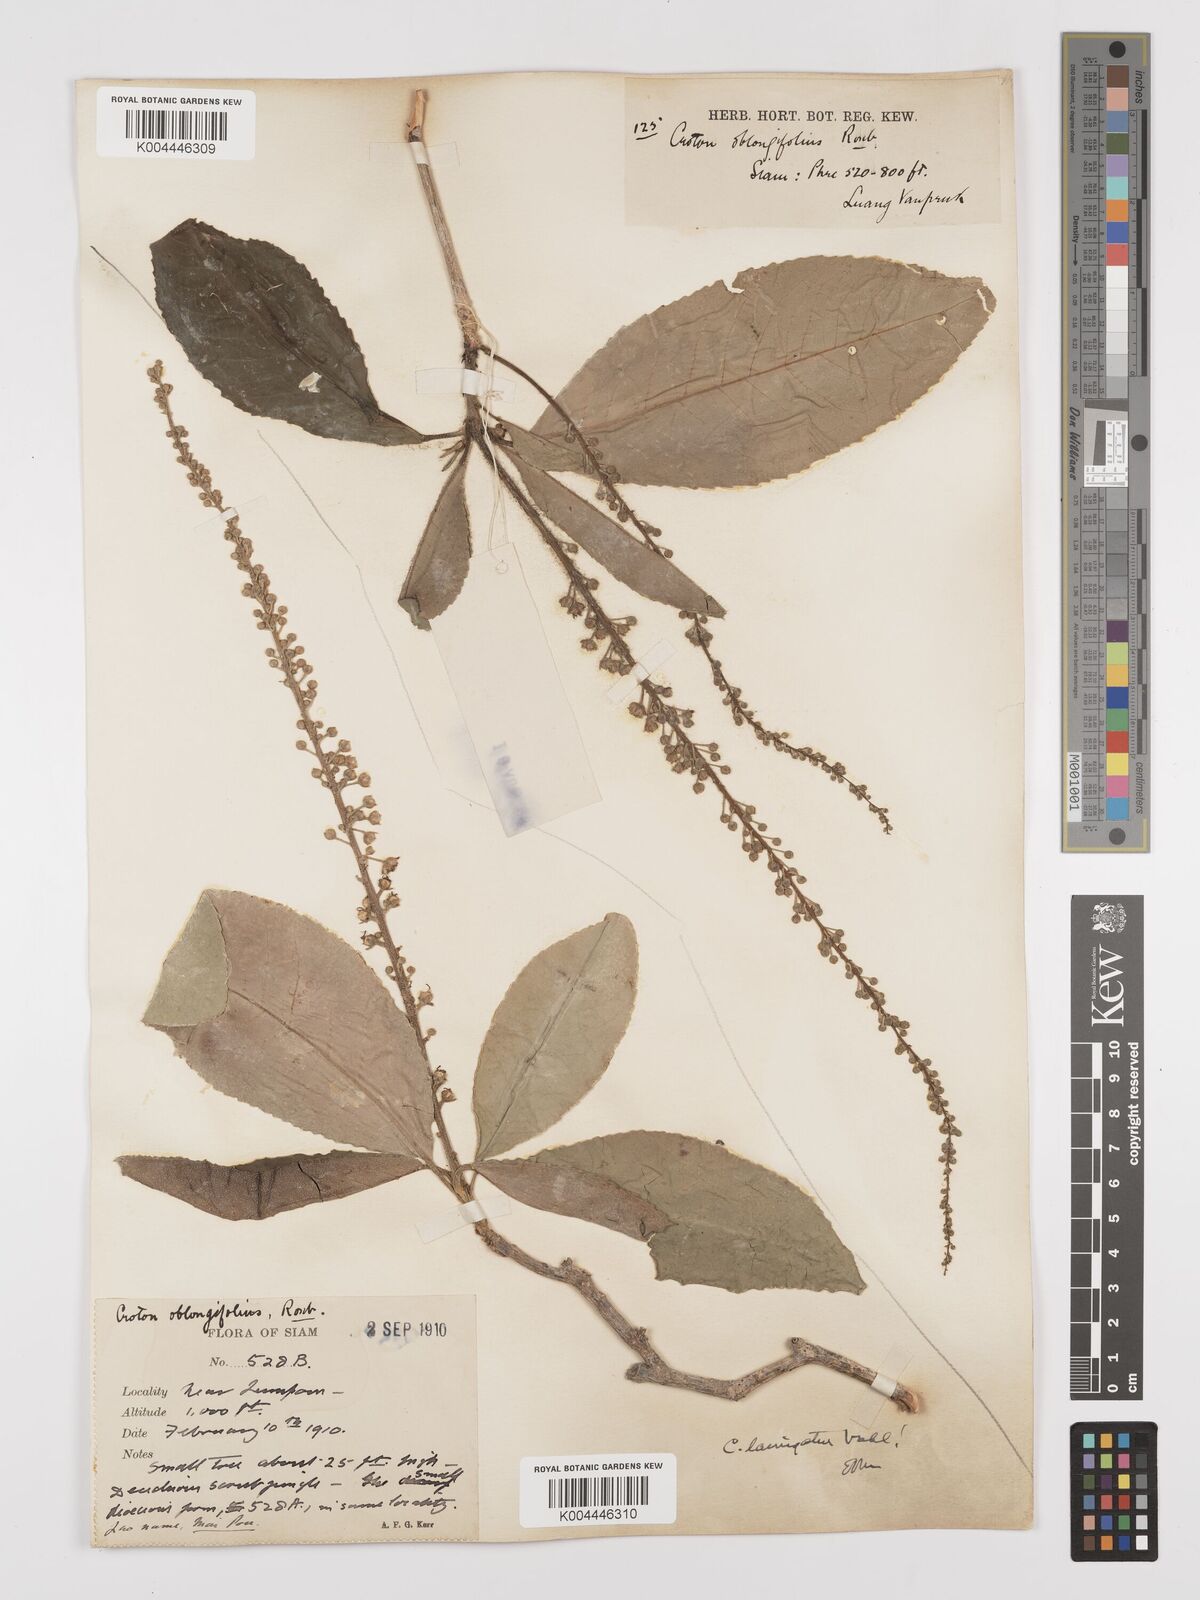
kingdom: Plantae
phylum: Tracheophyta
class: Magnoliopsida
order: Malpighiales
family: Euphorbiaceae
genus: Croton
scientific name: Croton
